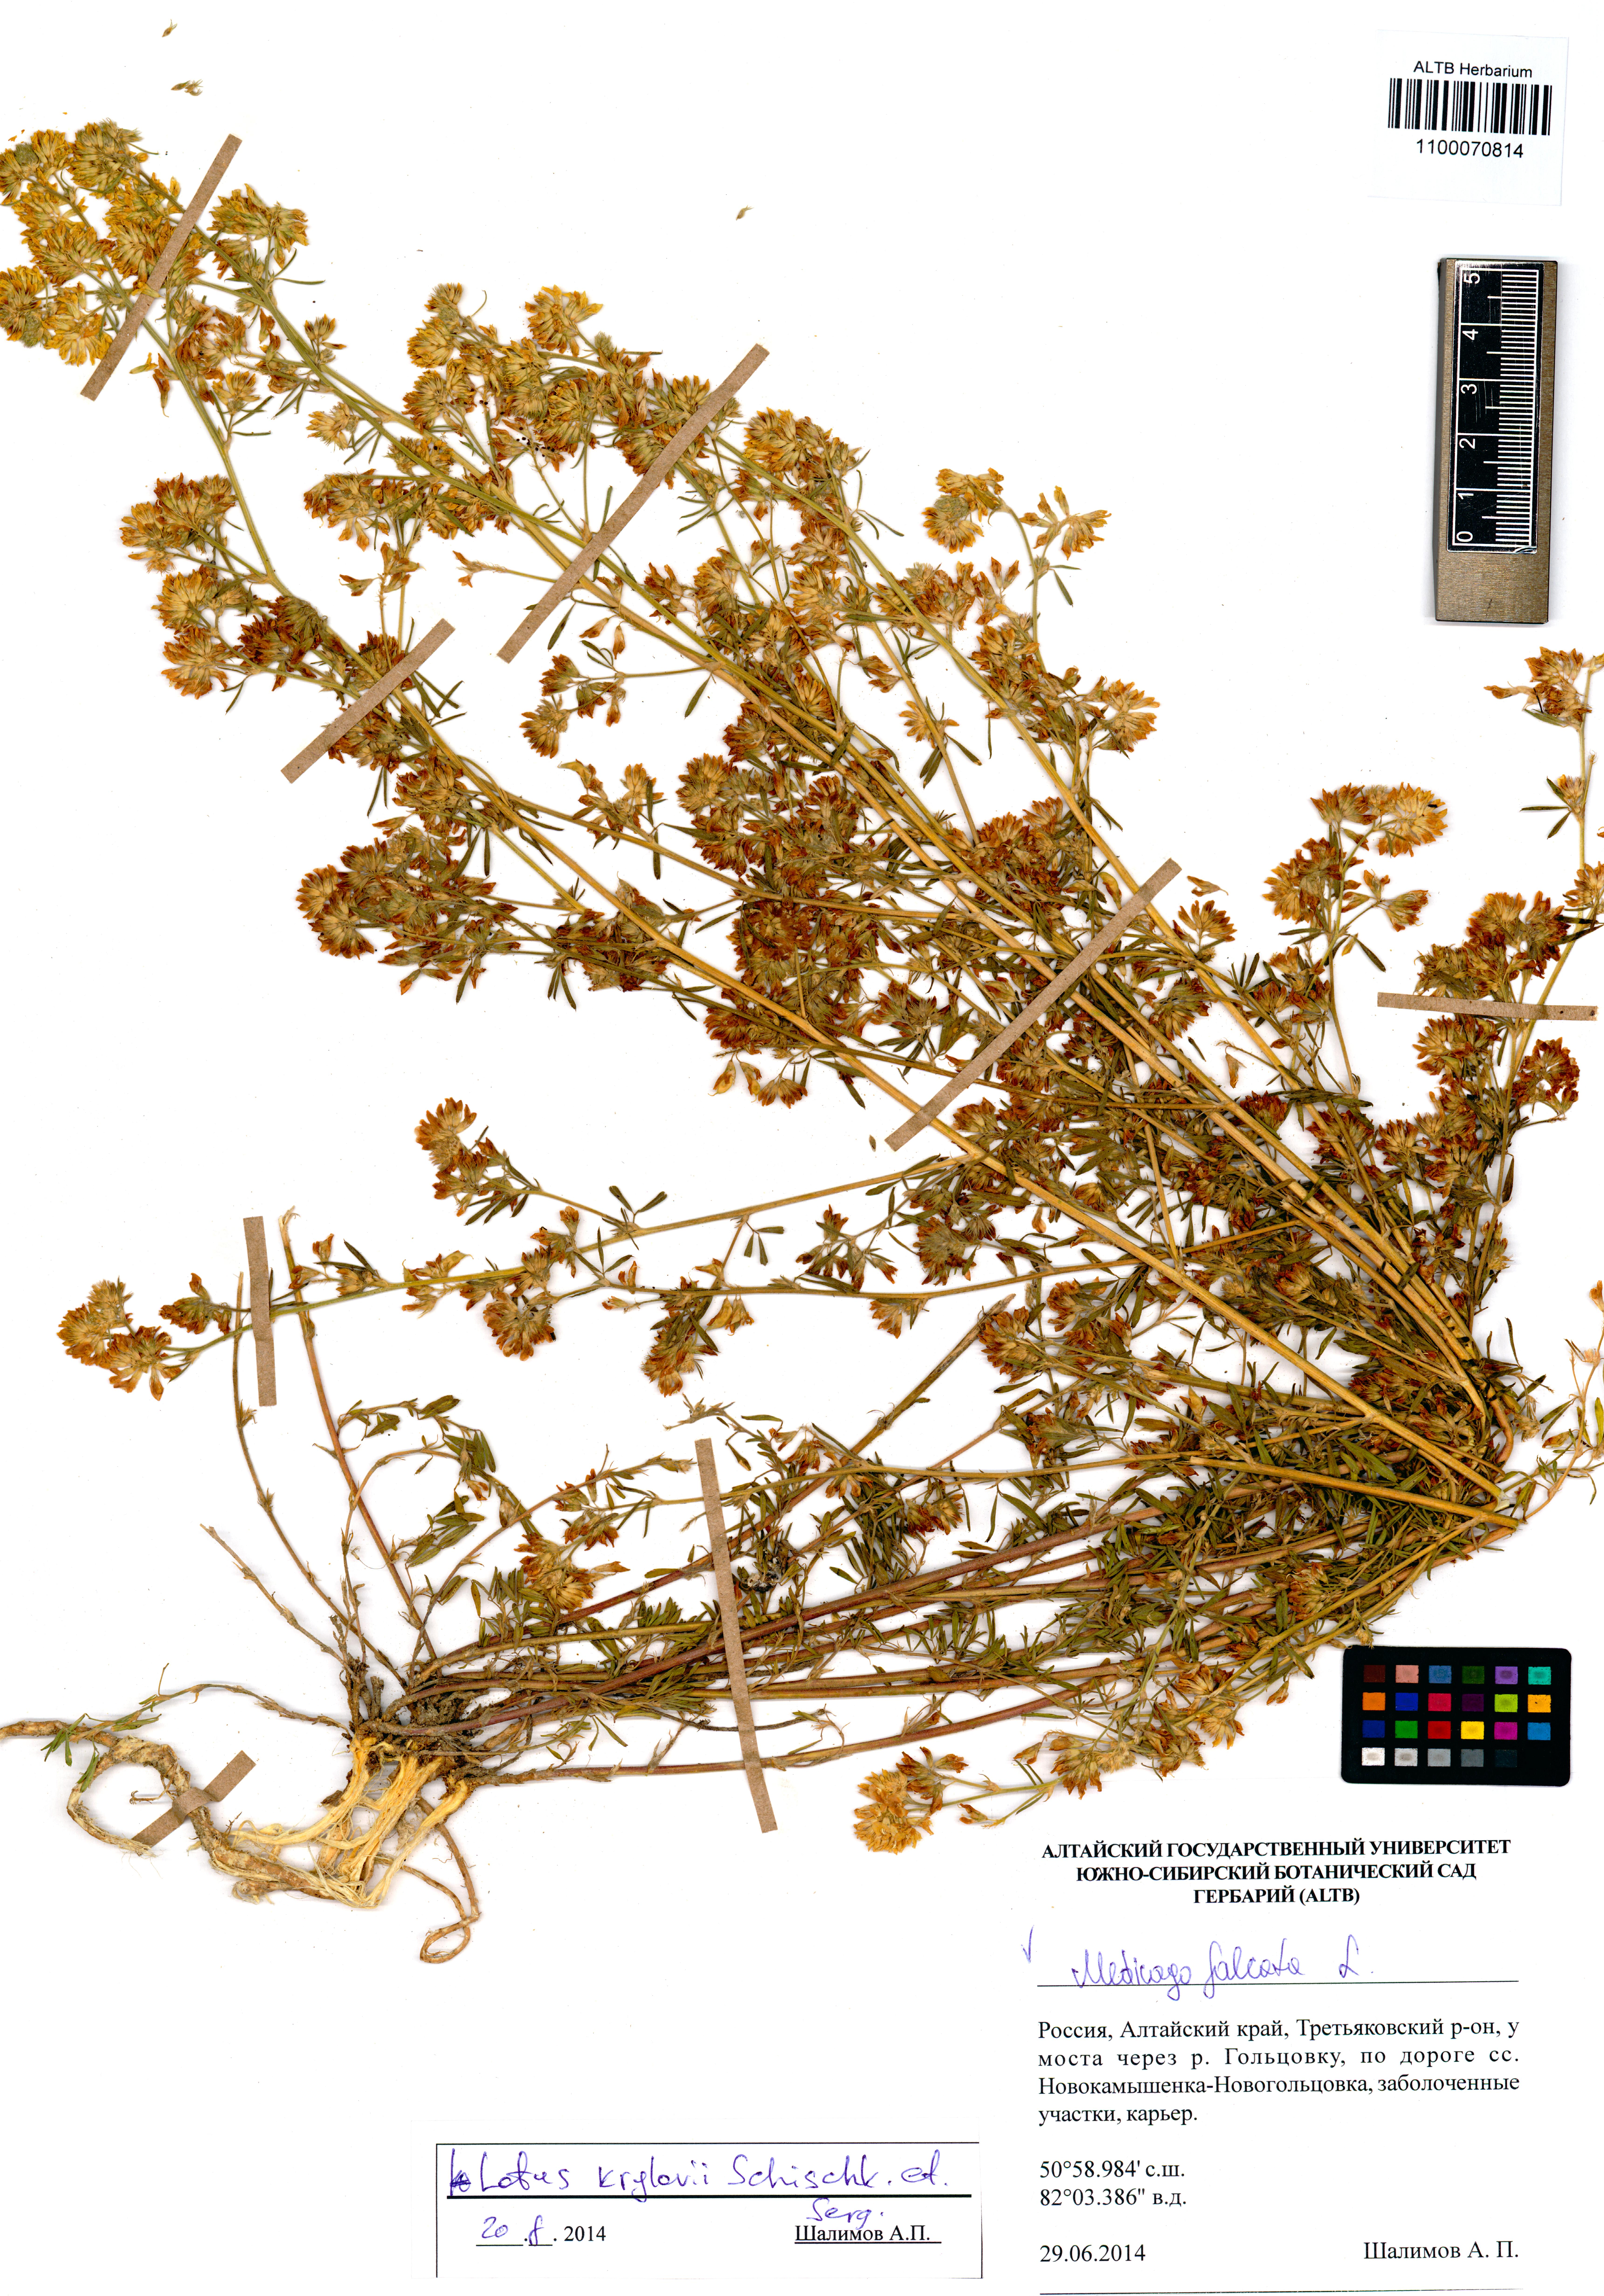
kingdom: Plantae
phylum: Tracheophyta
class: Magnoliopsida
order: Fabales
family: Fabaceae
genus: Medicago
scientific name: Medicago falcata
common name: Sickle medick
